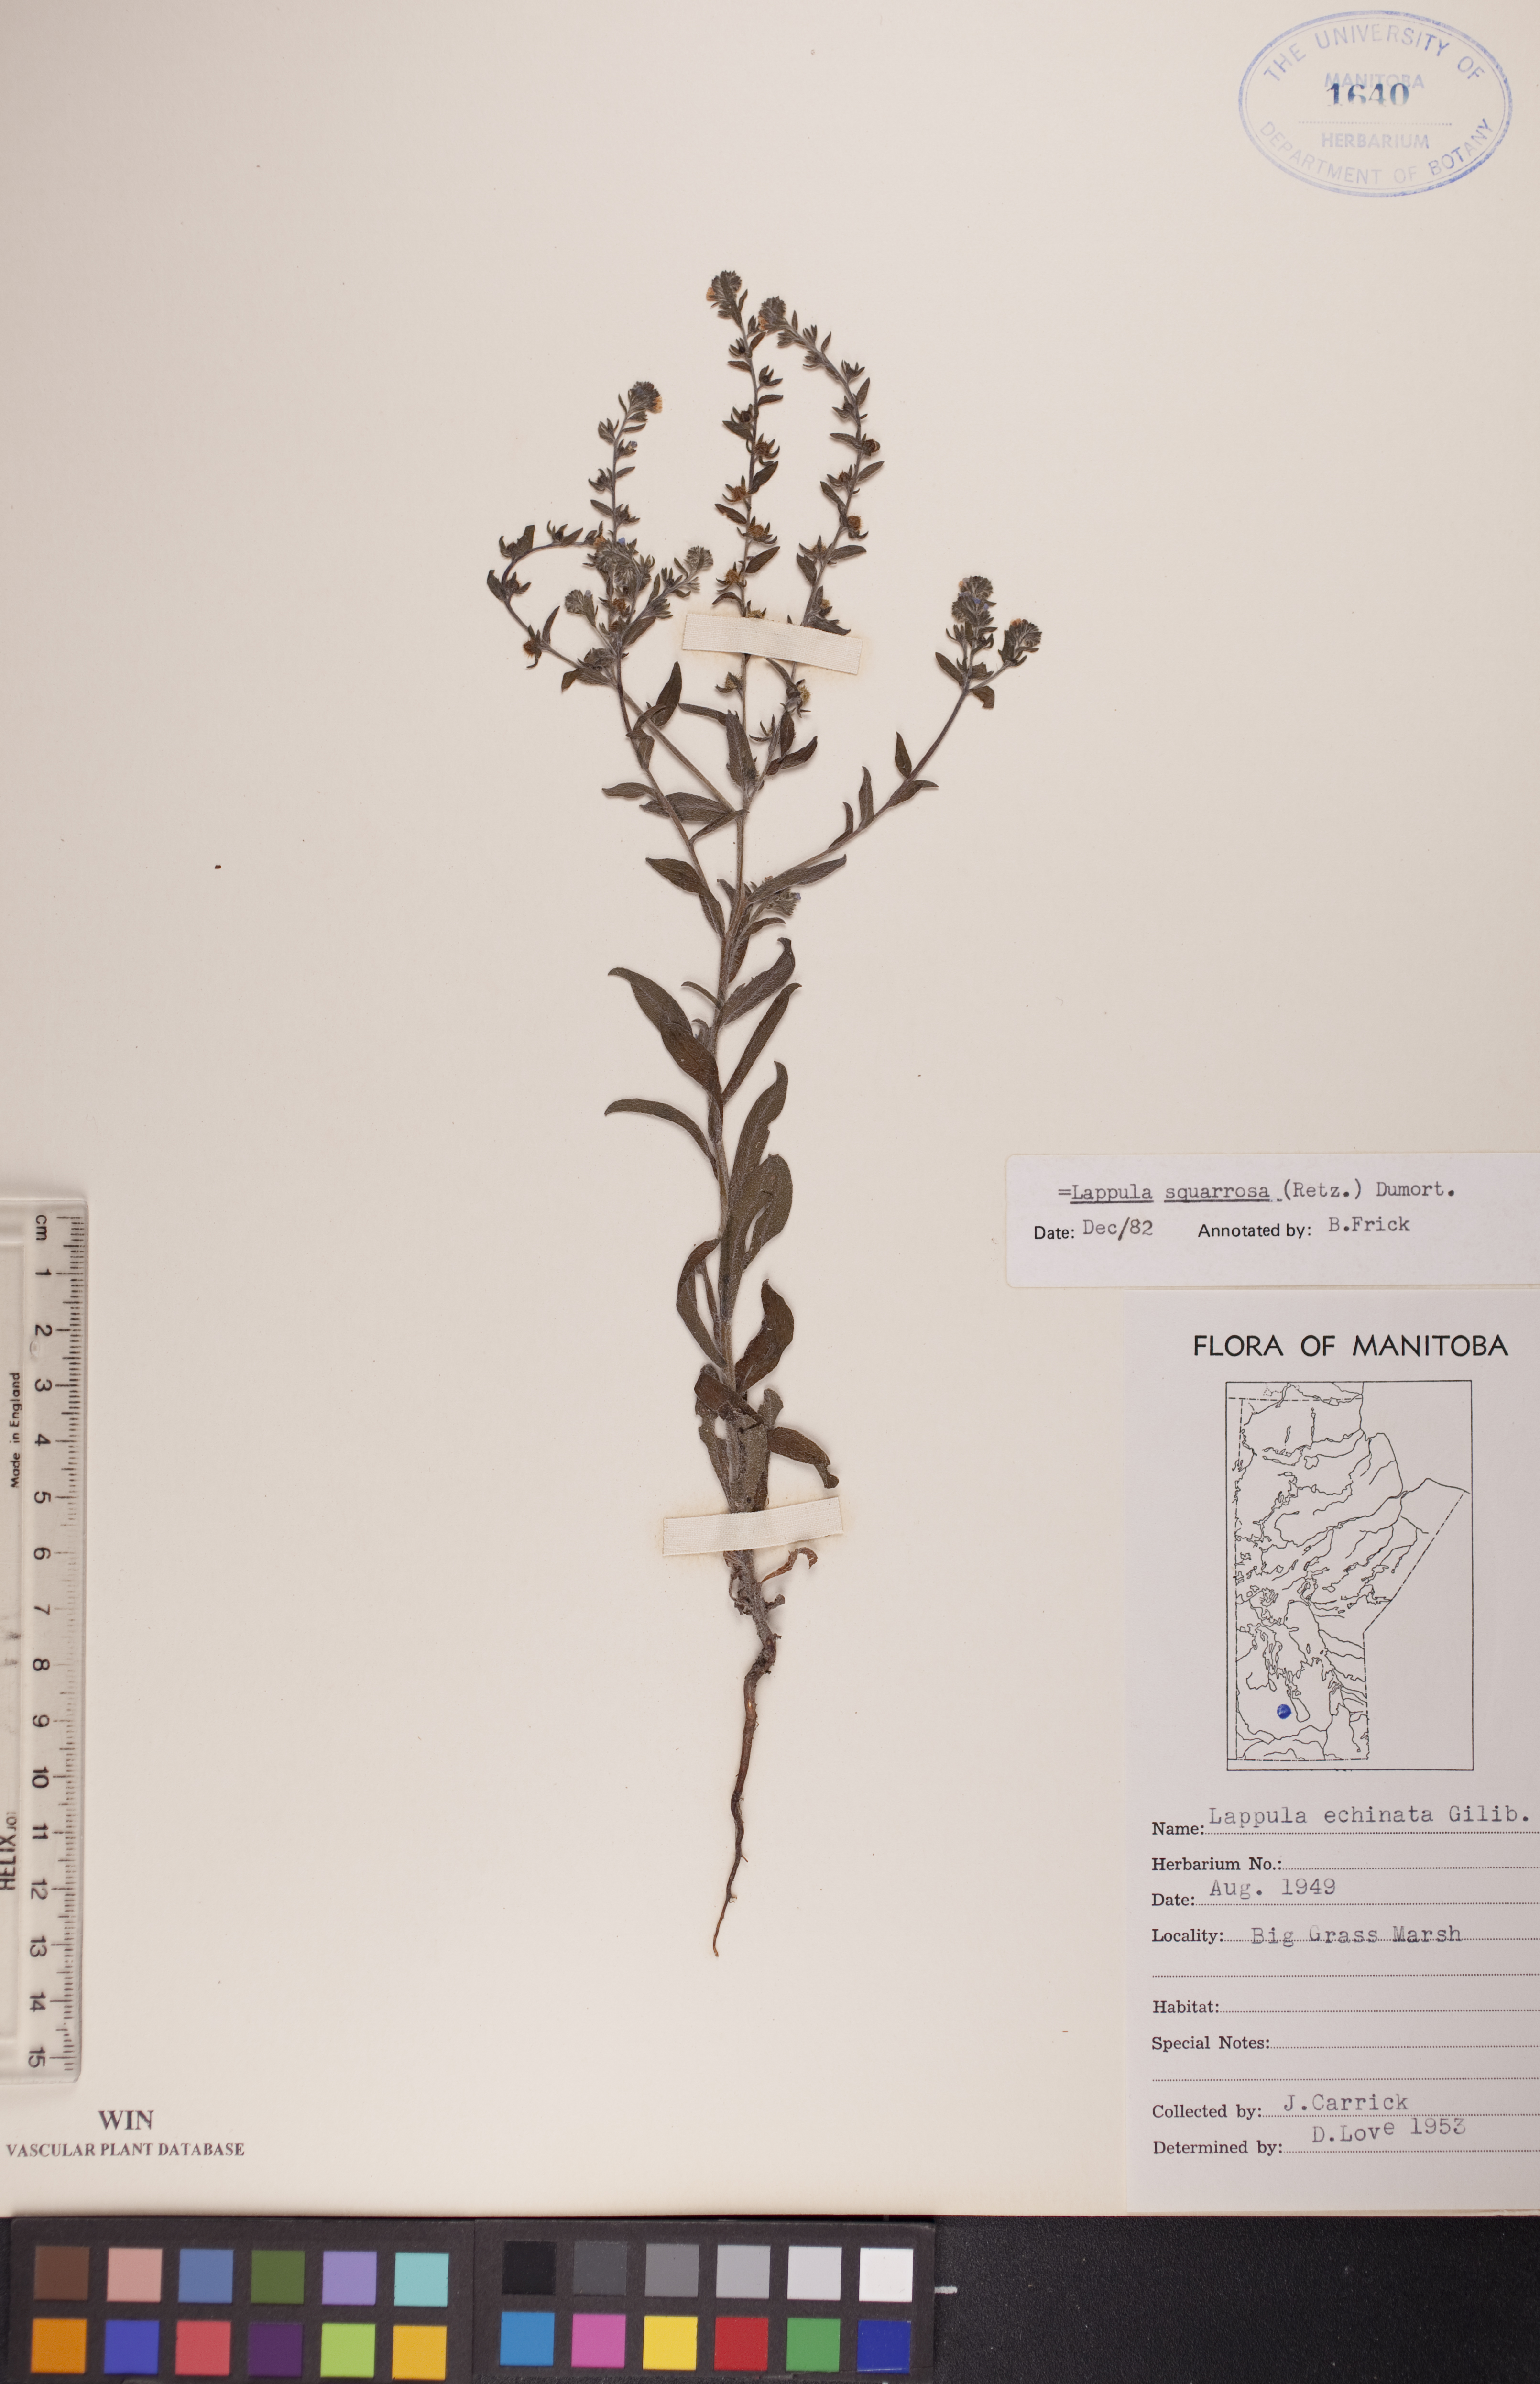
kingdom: Plantae
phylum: Tracheophyta
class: Magnoliopsida
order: Boraginales
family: Boraginaceae
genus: Lappula
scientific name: Lappula squarrosa
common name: European stickseed
